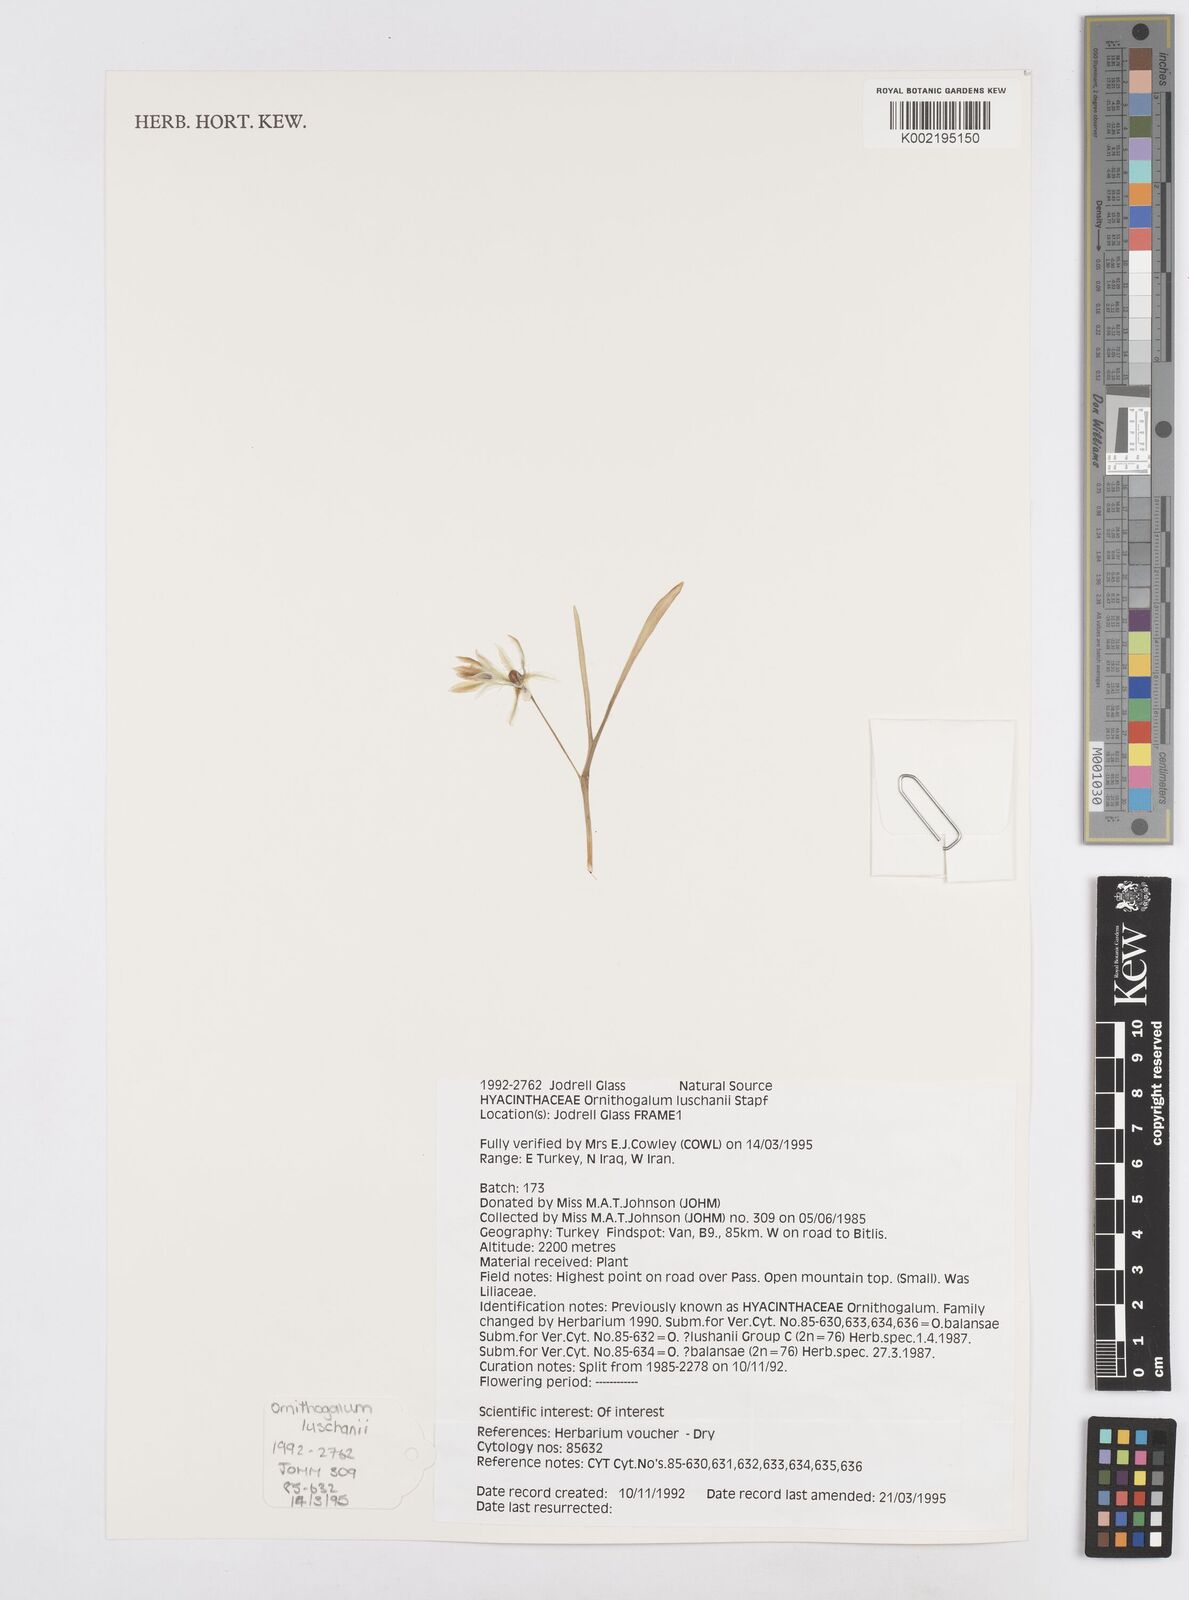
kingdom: Plantae
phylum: Tracheophyta
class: Liliopsida
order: Asparagales
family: Asparagaceae
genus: Ornithogalum
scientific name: Ornithogalum luschanii
